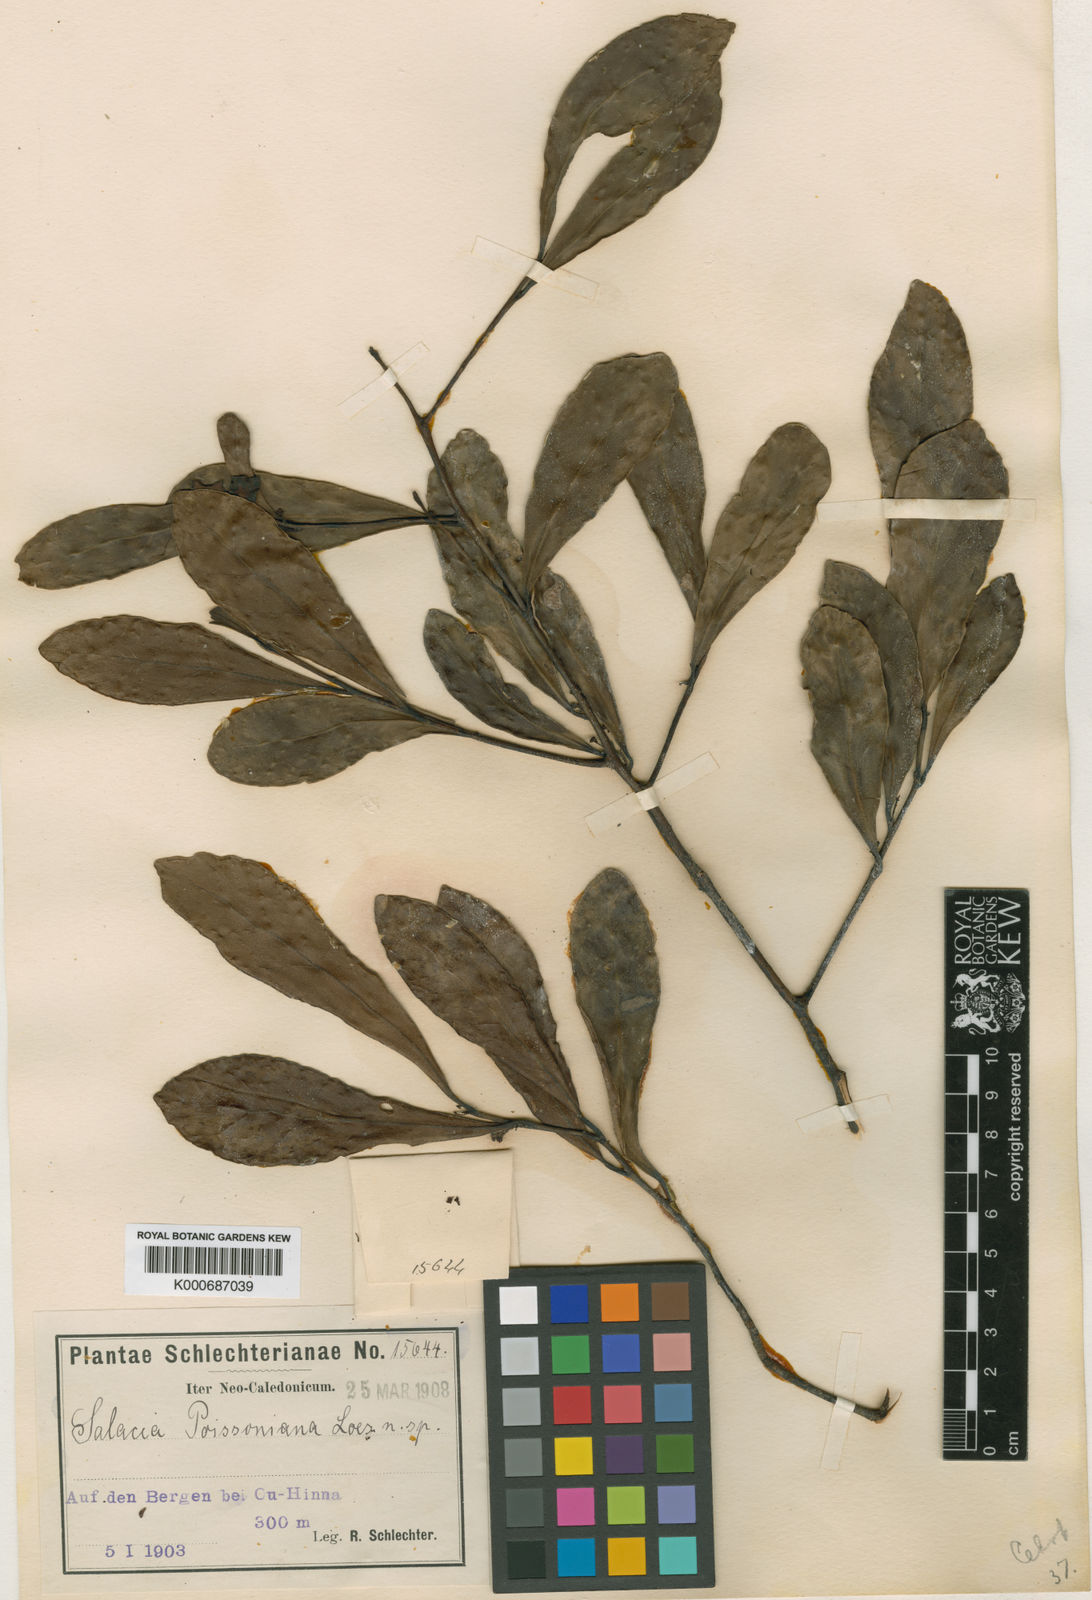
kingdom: Plantae
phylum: Tracheophyta
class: Magnoliopsida
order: Celastrales
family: Celastraceae
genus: Dicarpellum
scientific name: Dicarpellum baillonianum
